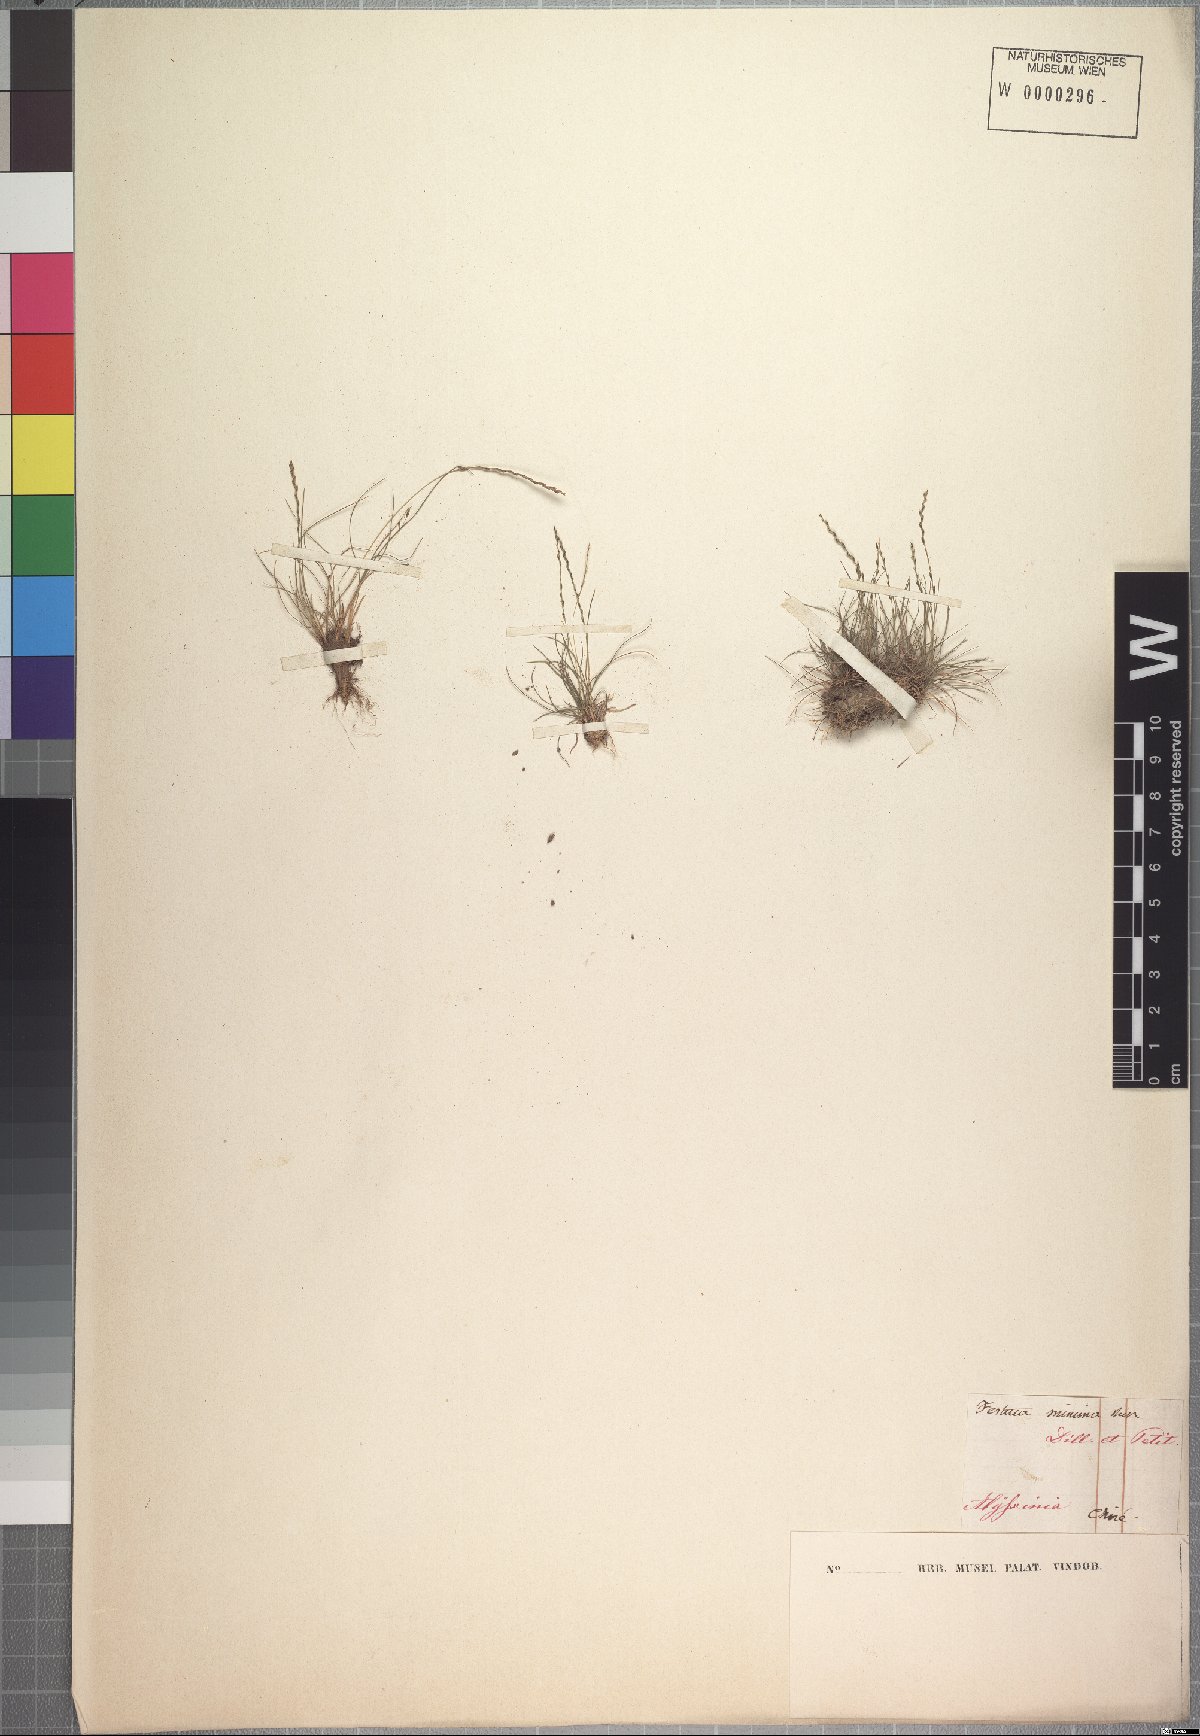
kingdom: Plantae
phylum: Tracheophyta
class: Liliopsida
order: Poales
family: Poaceae
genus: Tripogonella
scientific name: Tripogonella minima
